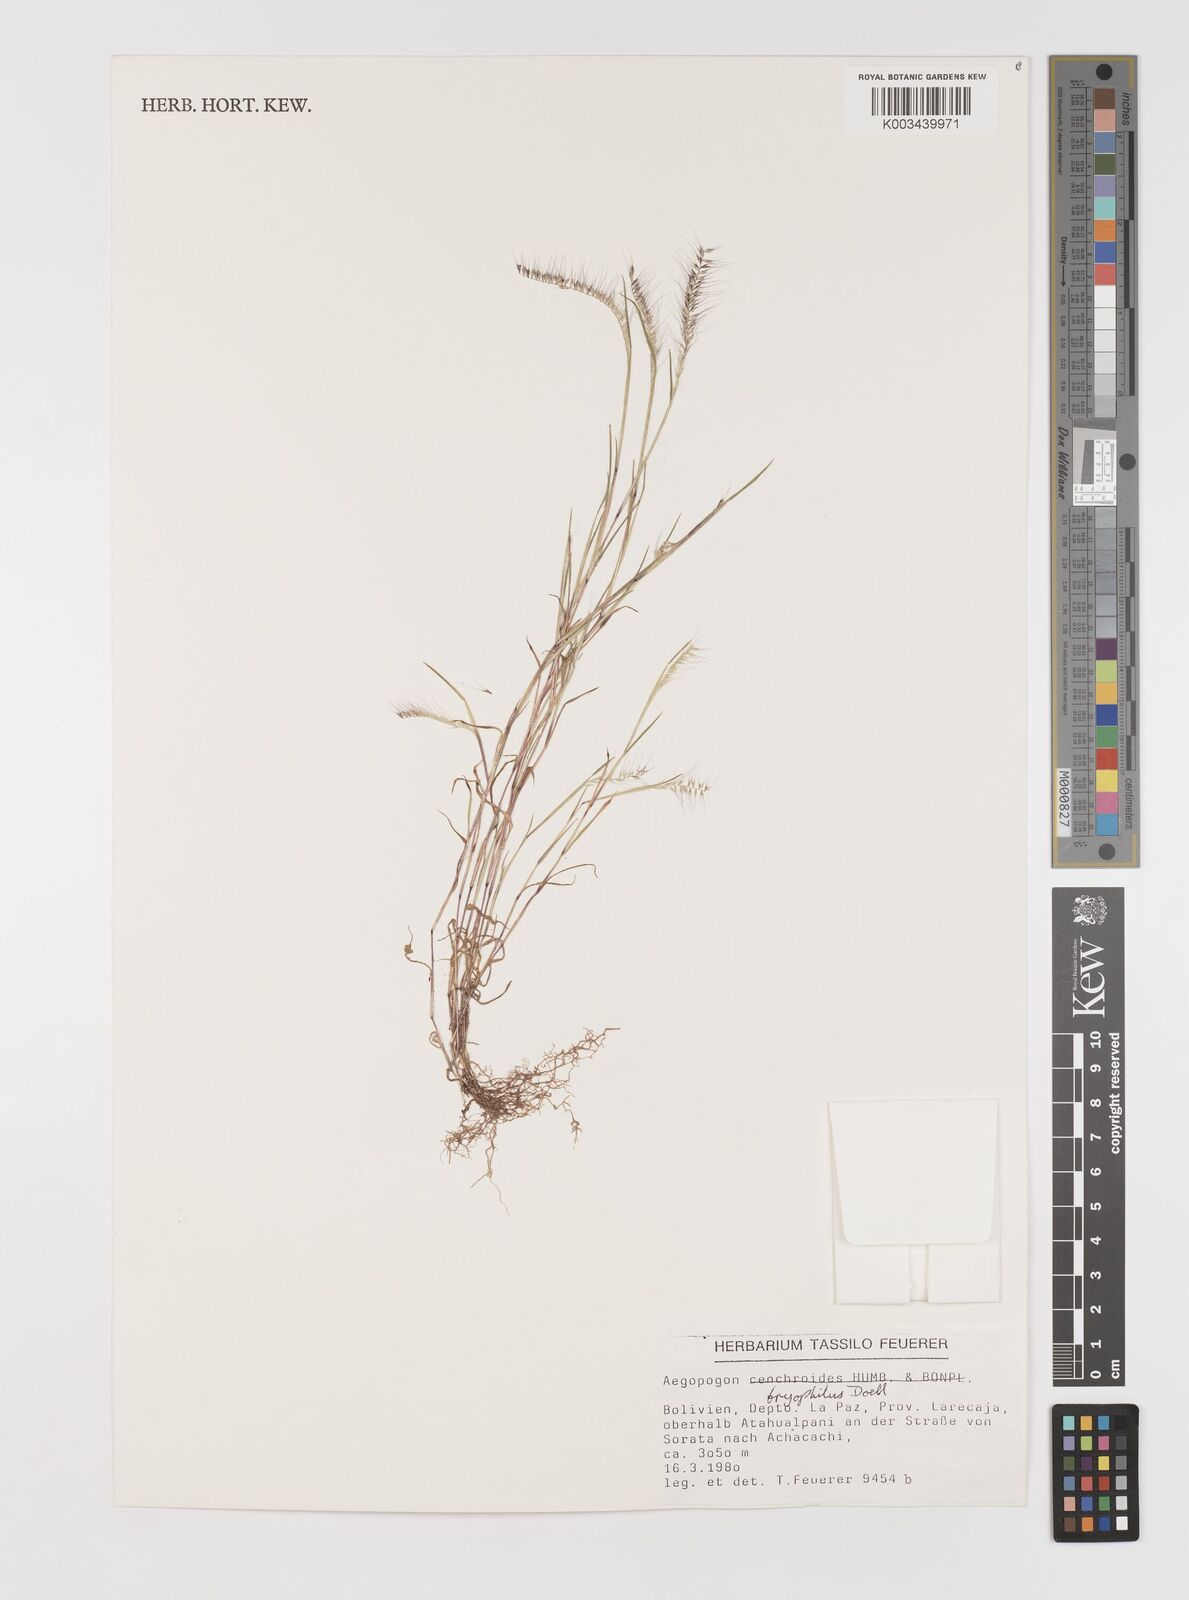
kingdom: Plantae
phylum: Tracheophyta
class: Liliopsida
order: Poales
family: Poaceae
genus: Muhlenbergia
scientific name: Muhlenbergia bryophilus
